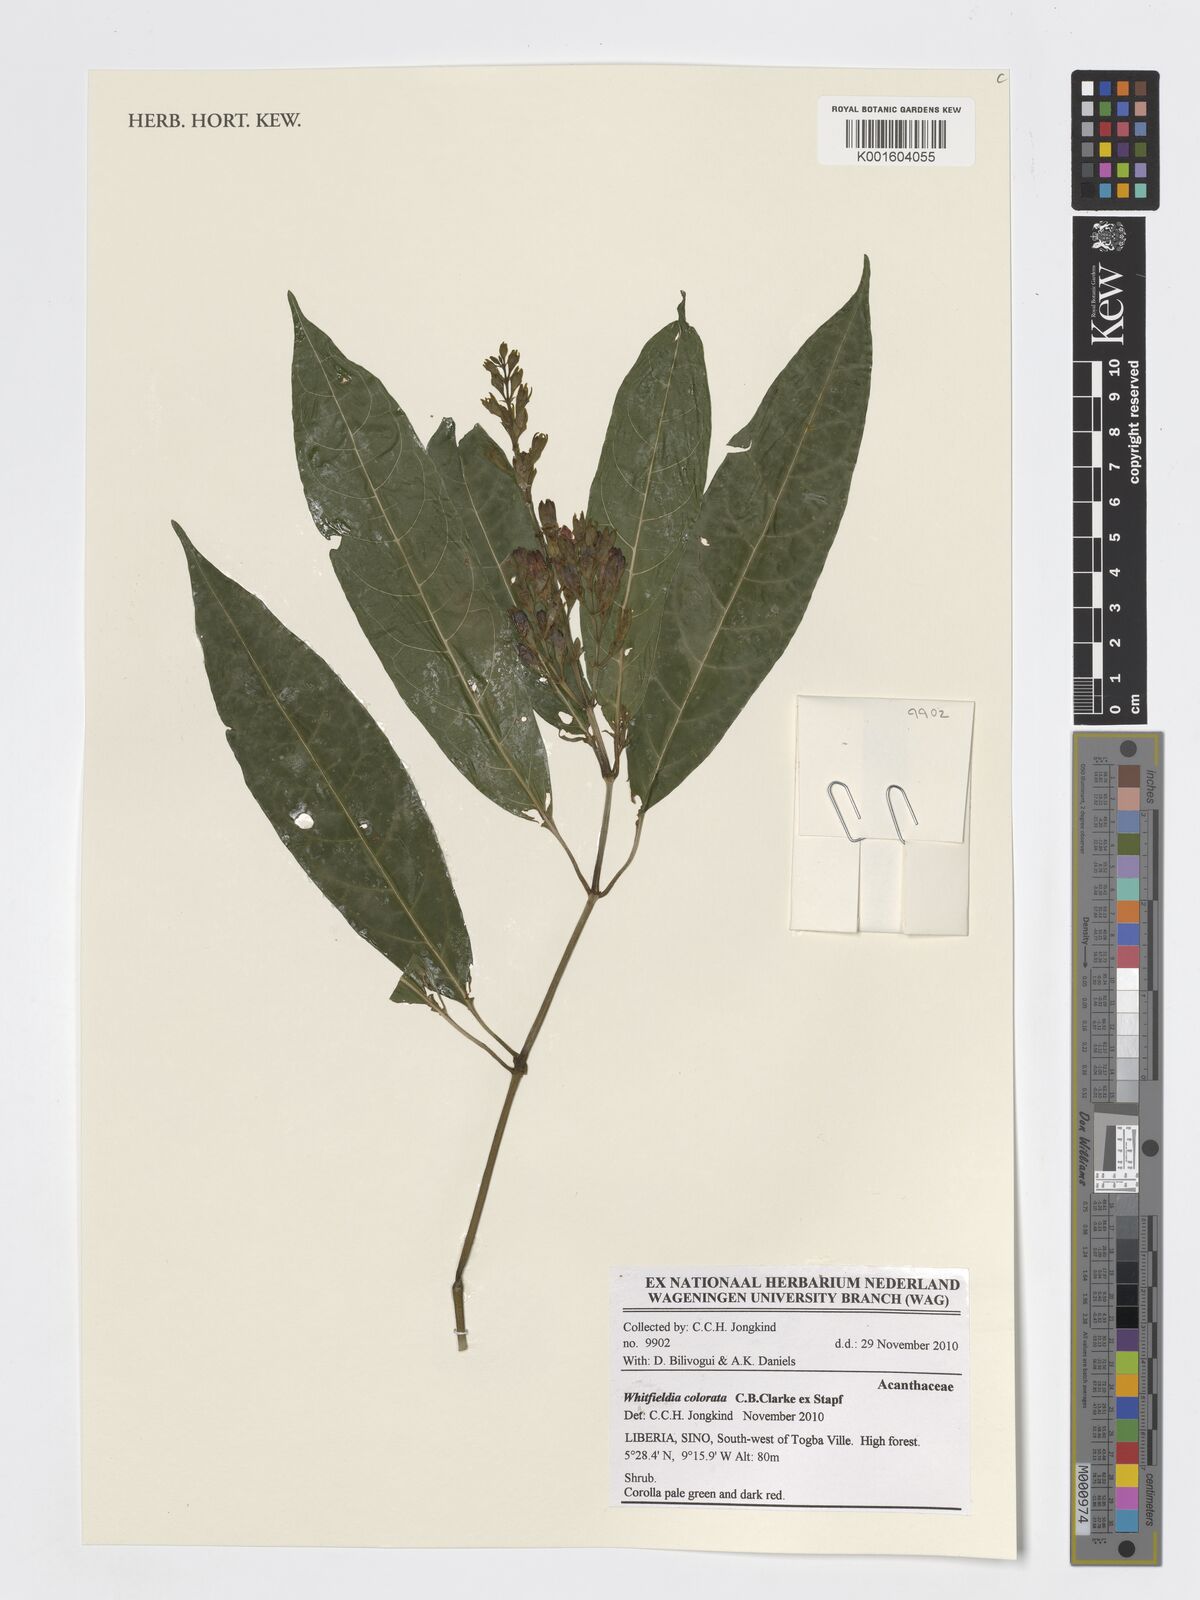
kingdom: Plantae
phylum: Tracheophyta
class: Magnoliopsida
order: Lamiales
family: Acanthaceae
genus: Whitfieldia
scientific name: Whitfieldia colorata
